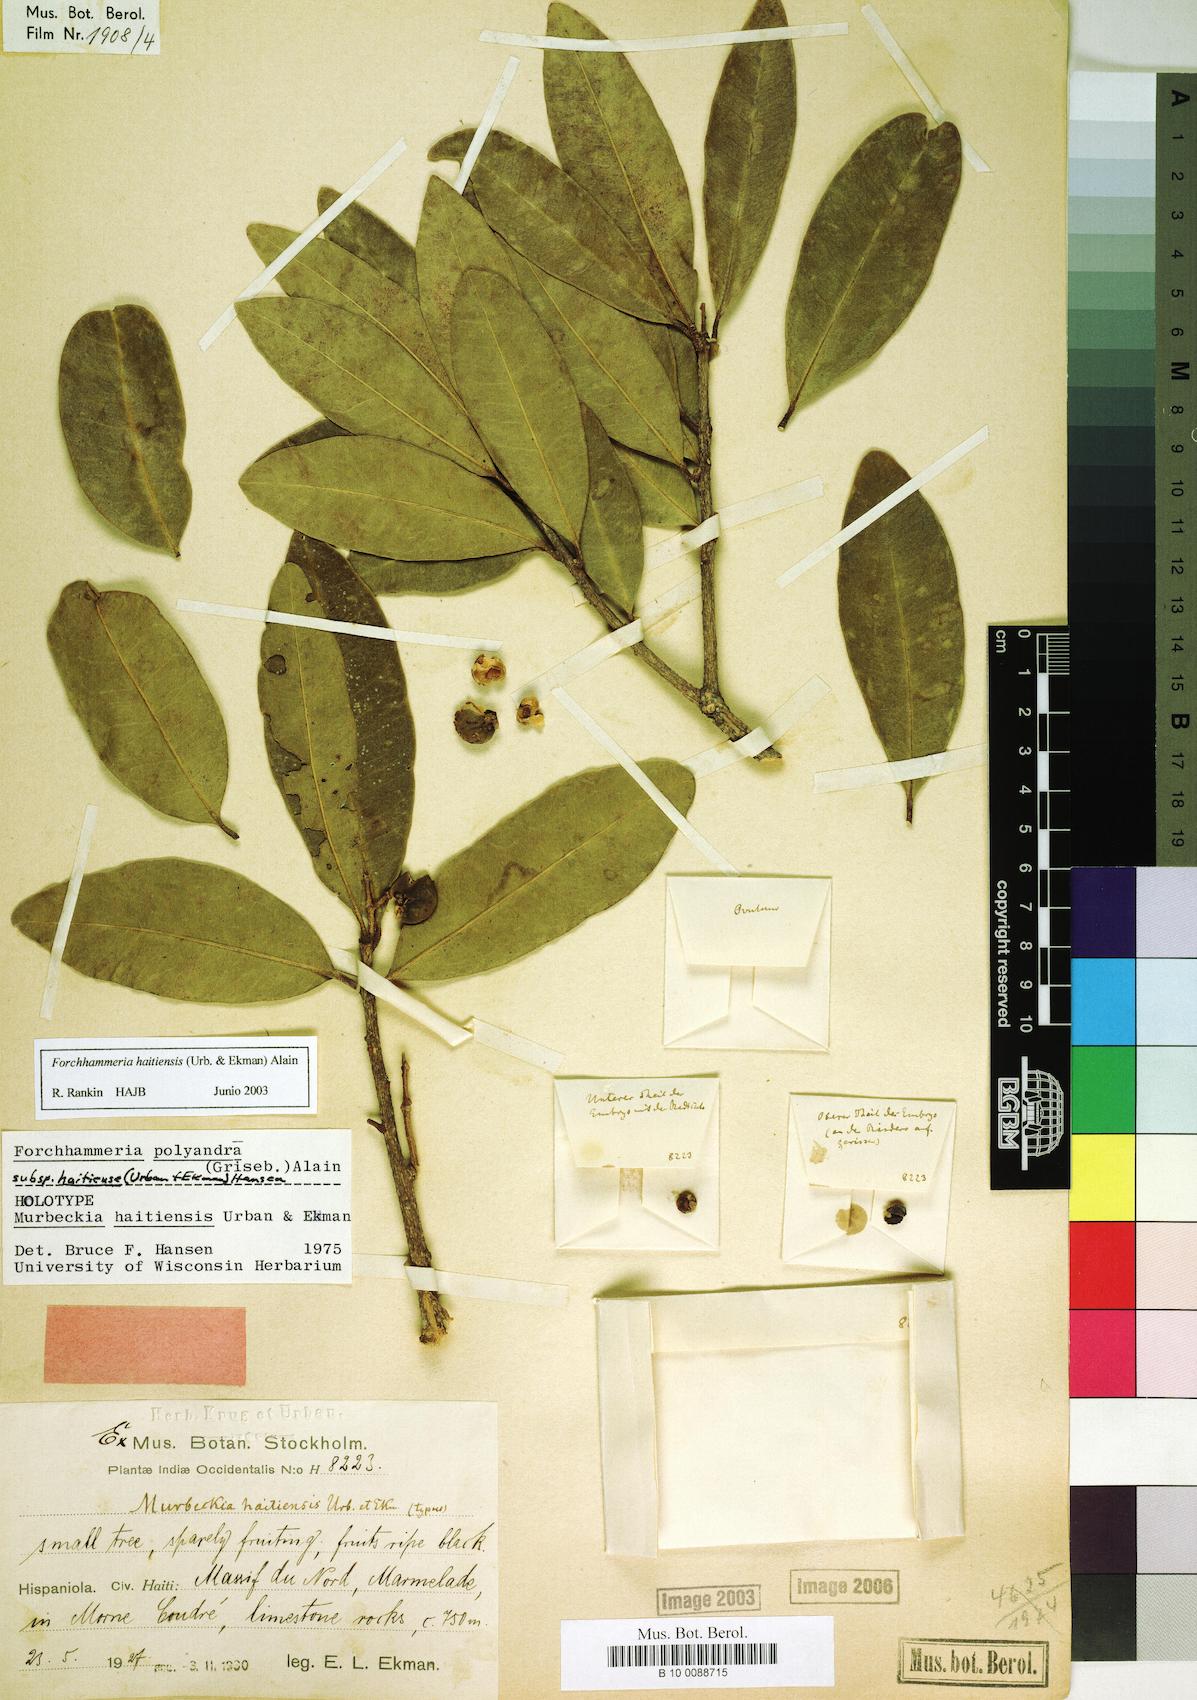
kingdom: Plantae
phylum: Tracheophyta
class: Magnoliopsida
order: Brassicales
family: Stixaceae
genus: Forchhammeria
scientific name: Forchhammeria haitiensis
